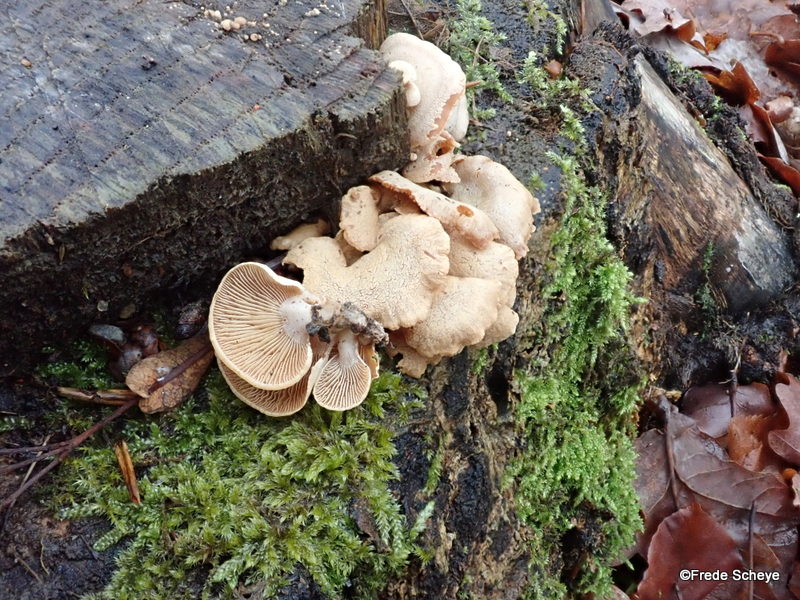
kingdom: Fungi
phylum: Basidiomycota
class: Agaricomycetes
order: Agaricales
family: Mycenaceae
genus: Panellus
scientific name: Panellus stipticus
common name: kliddet epaulethat
